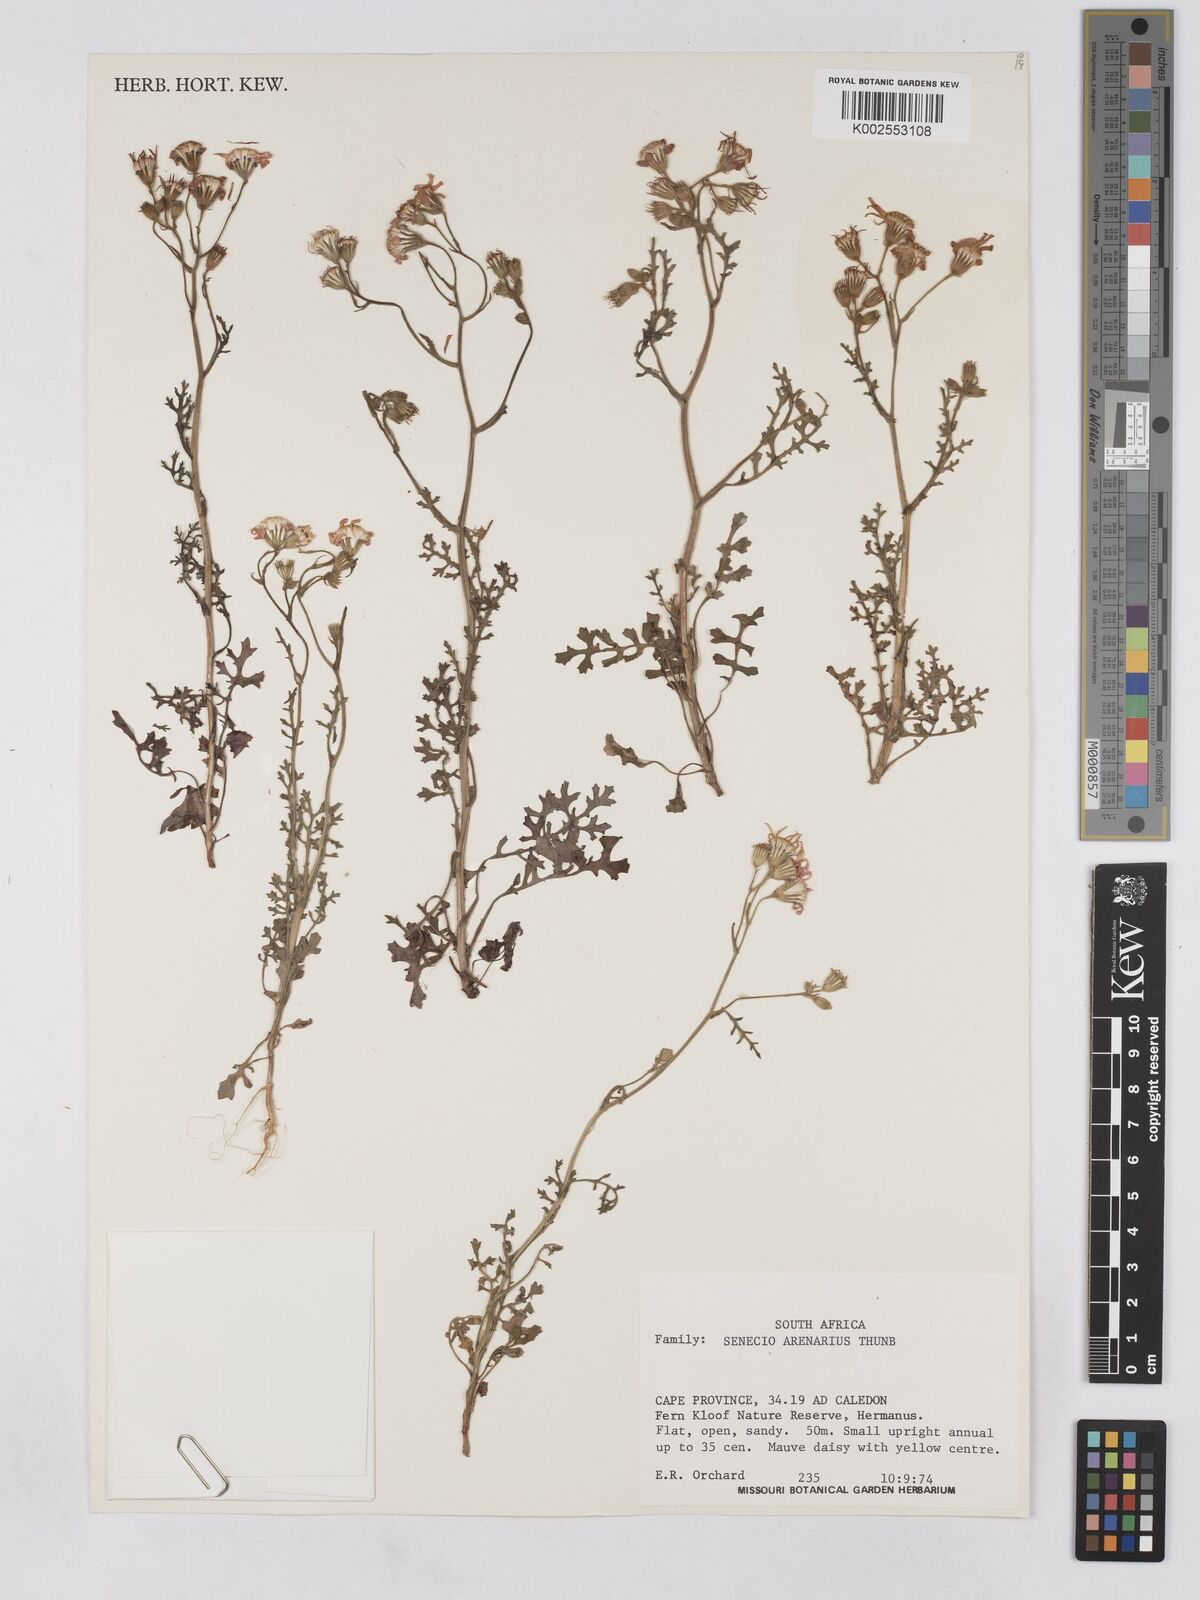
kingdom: Plantae
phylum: Tracheophyta
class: Magnoliopsida
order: Asterales
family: Asteraceae
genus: Senecio
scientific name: Senecio arenarius
